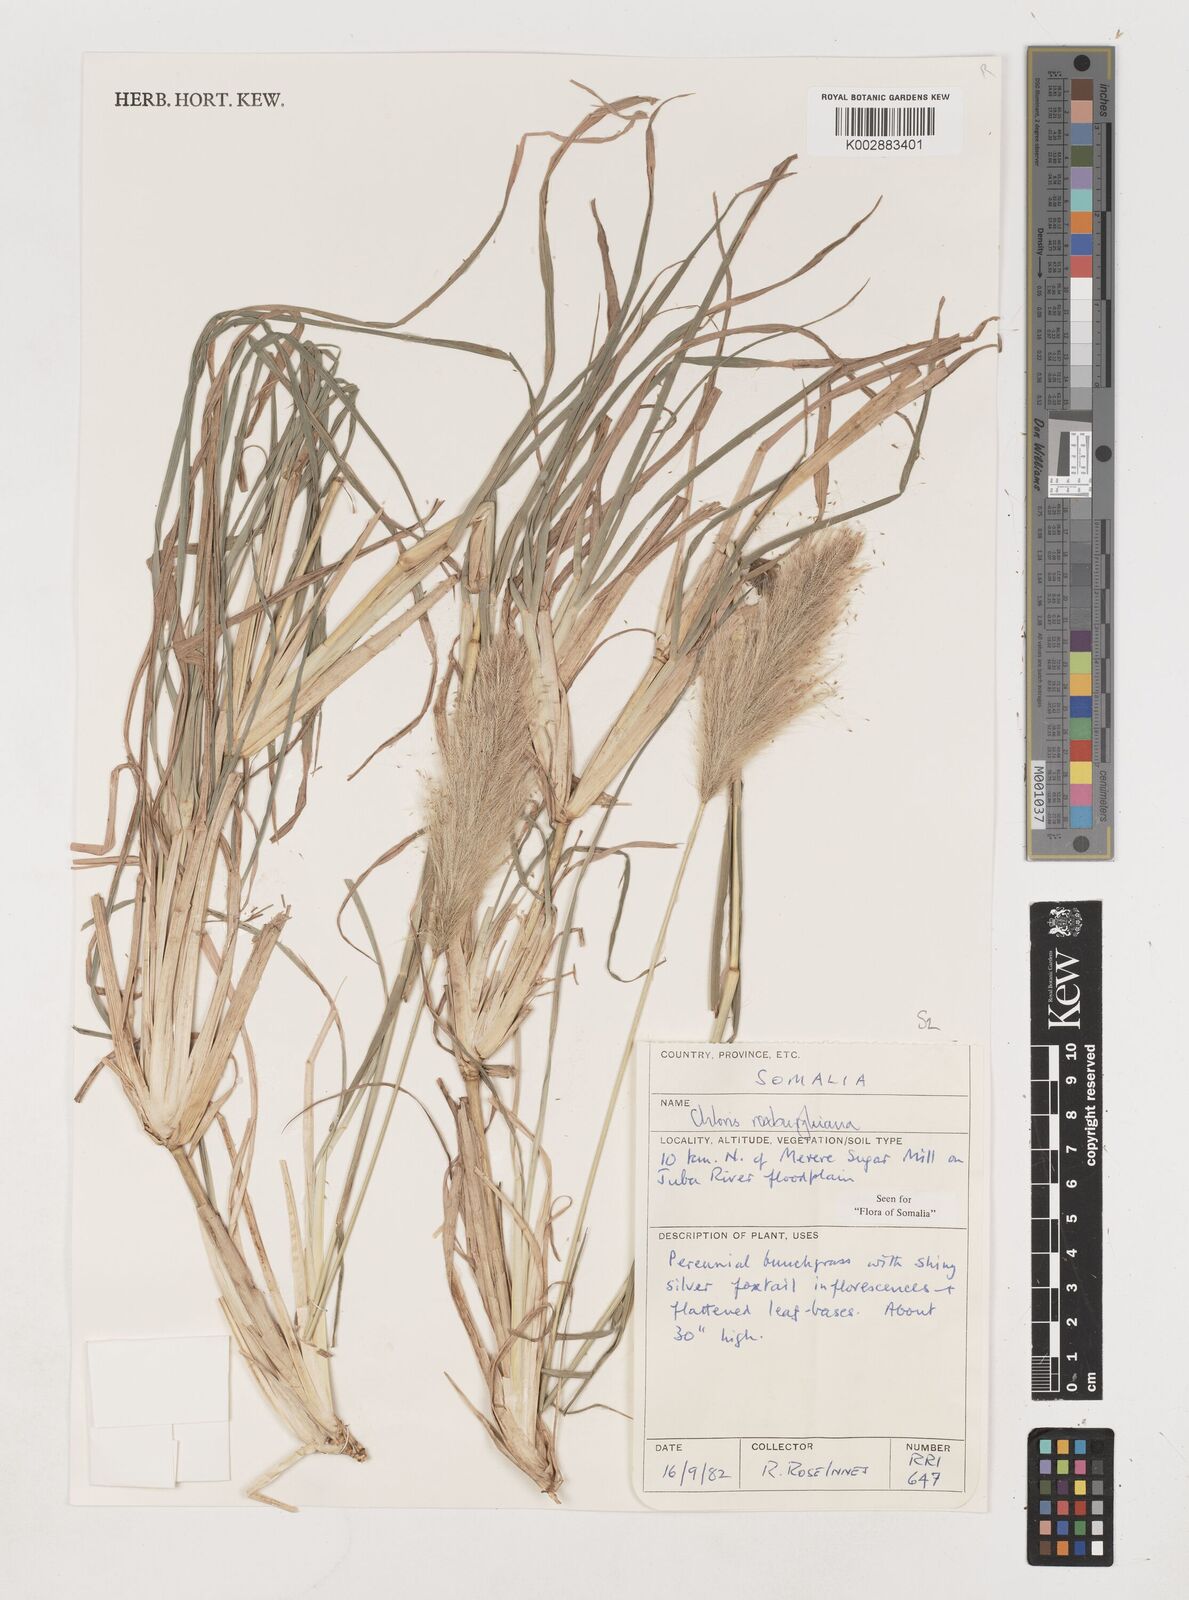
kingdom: Plantae
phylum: Tracheophyta
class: Liliopsida
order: Poales
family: Poaceae
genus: Tetrapogon
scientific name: Tetrapogon roxburghiana
